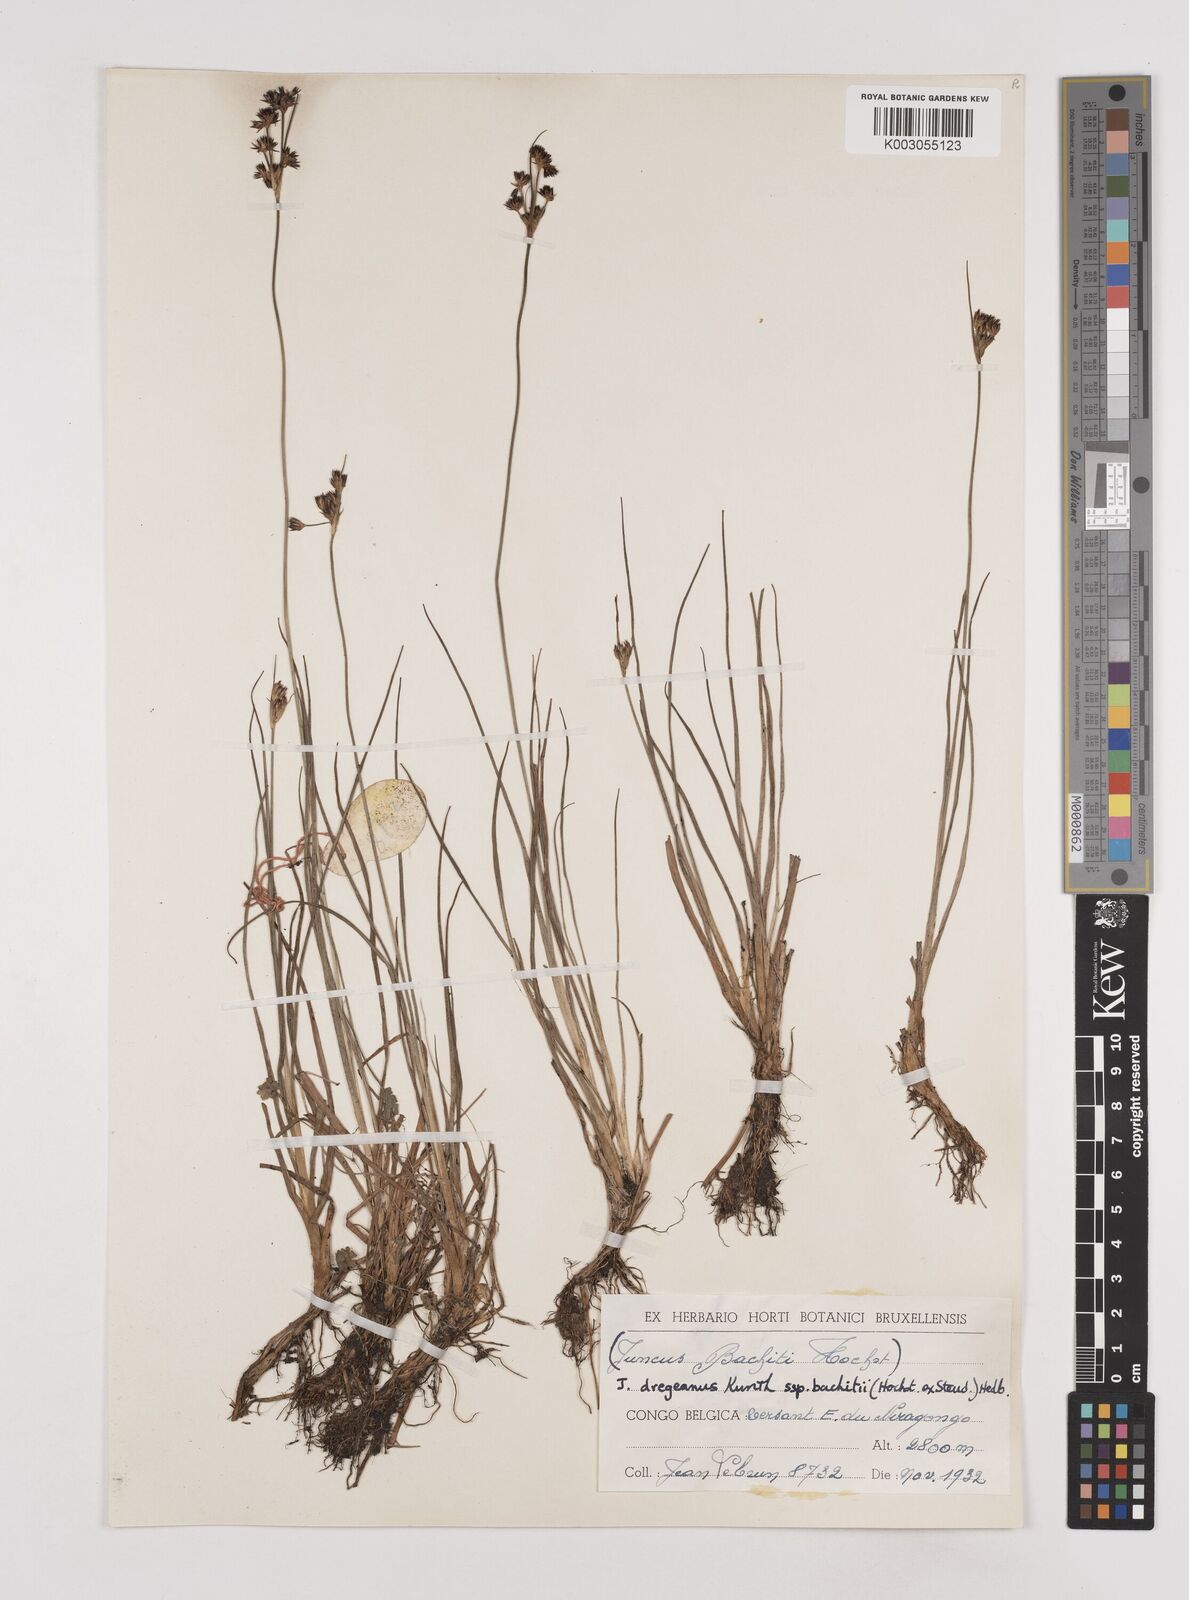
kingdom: Plantae
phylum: Tracheophyta
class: Liliopsida
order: Poales
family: Juncaceae
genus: Juncus
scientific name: Juncus dregeanus
